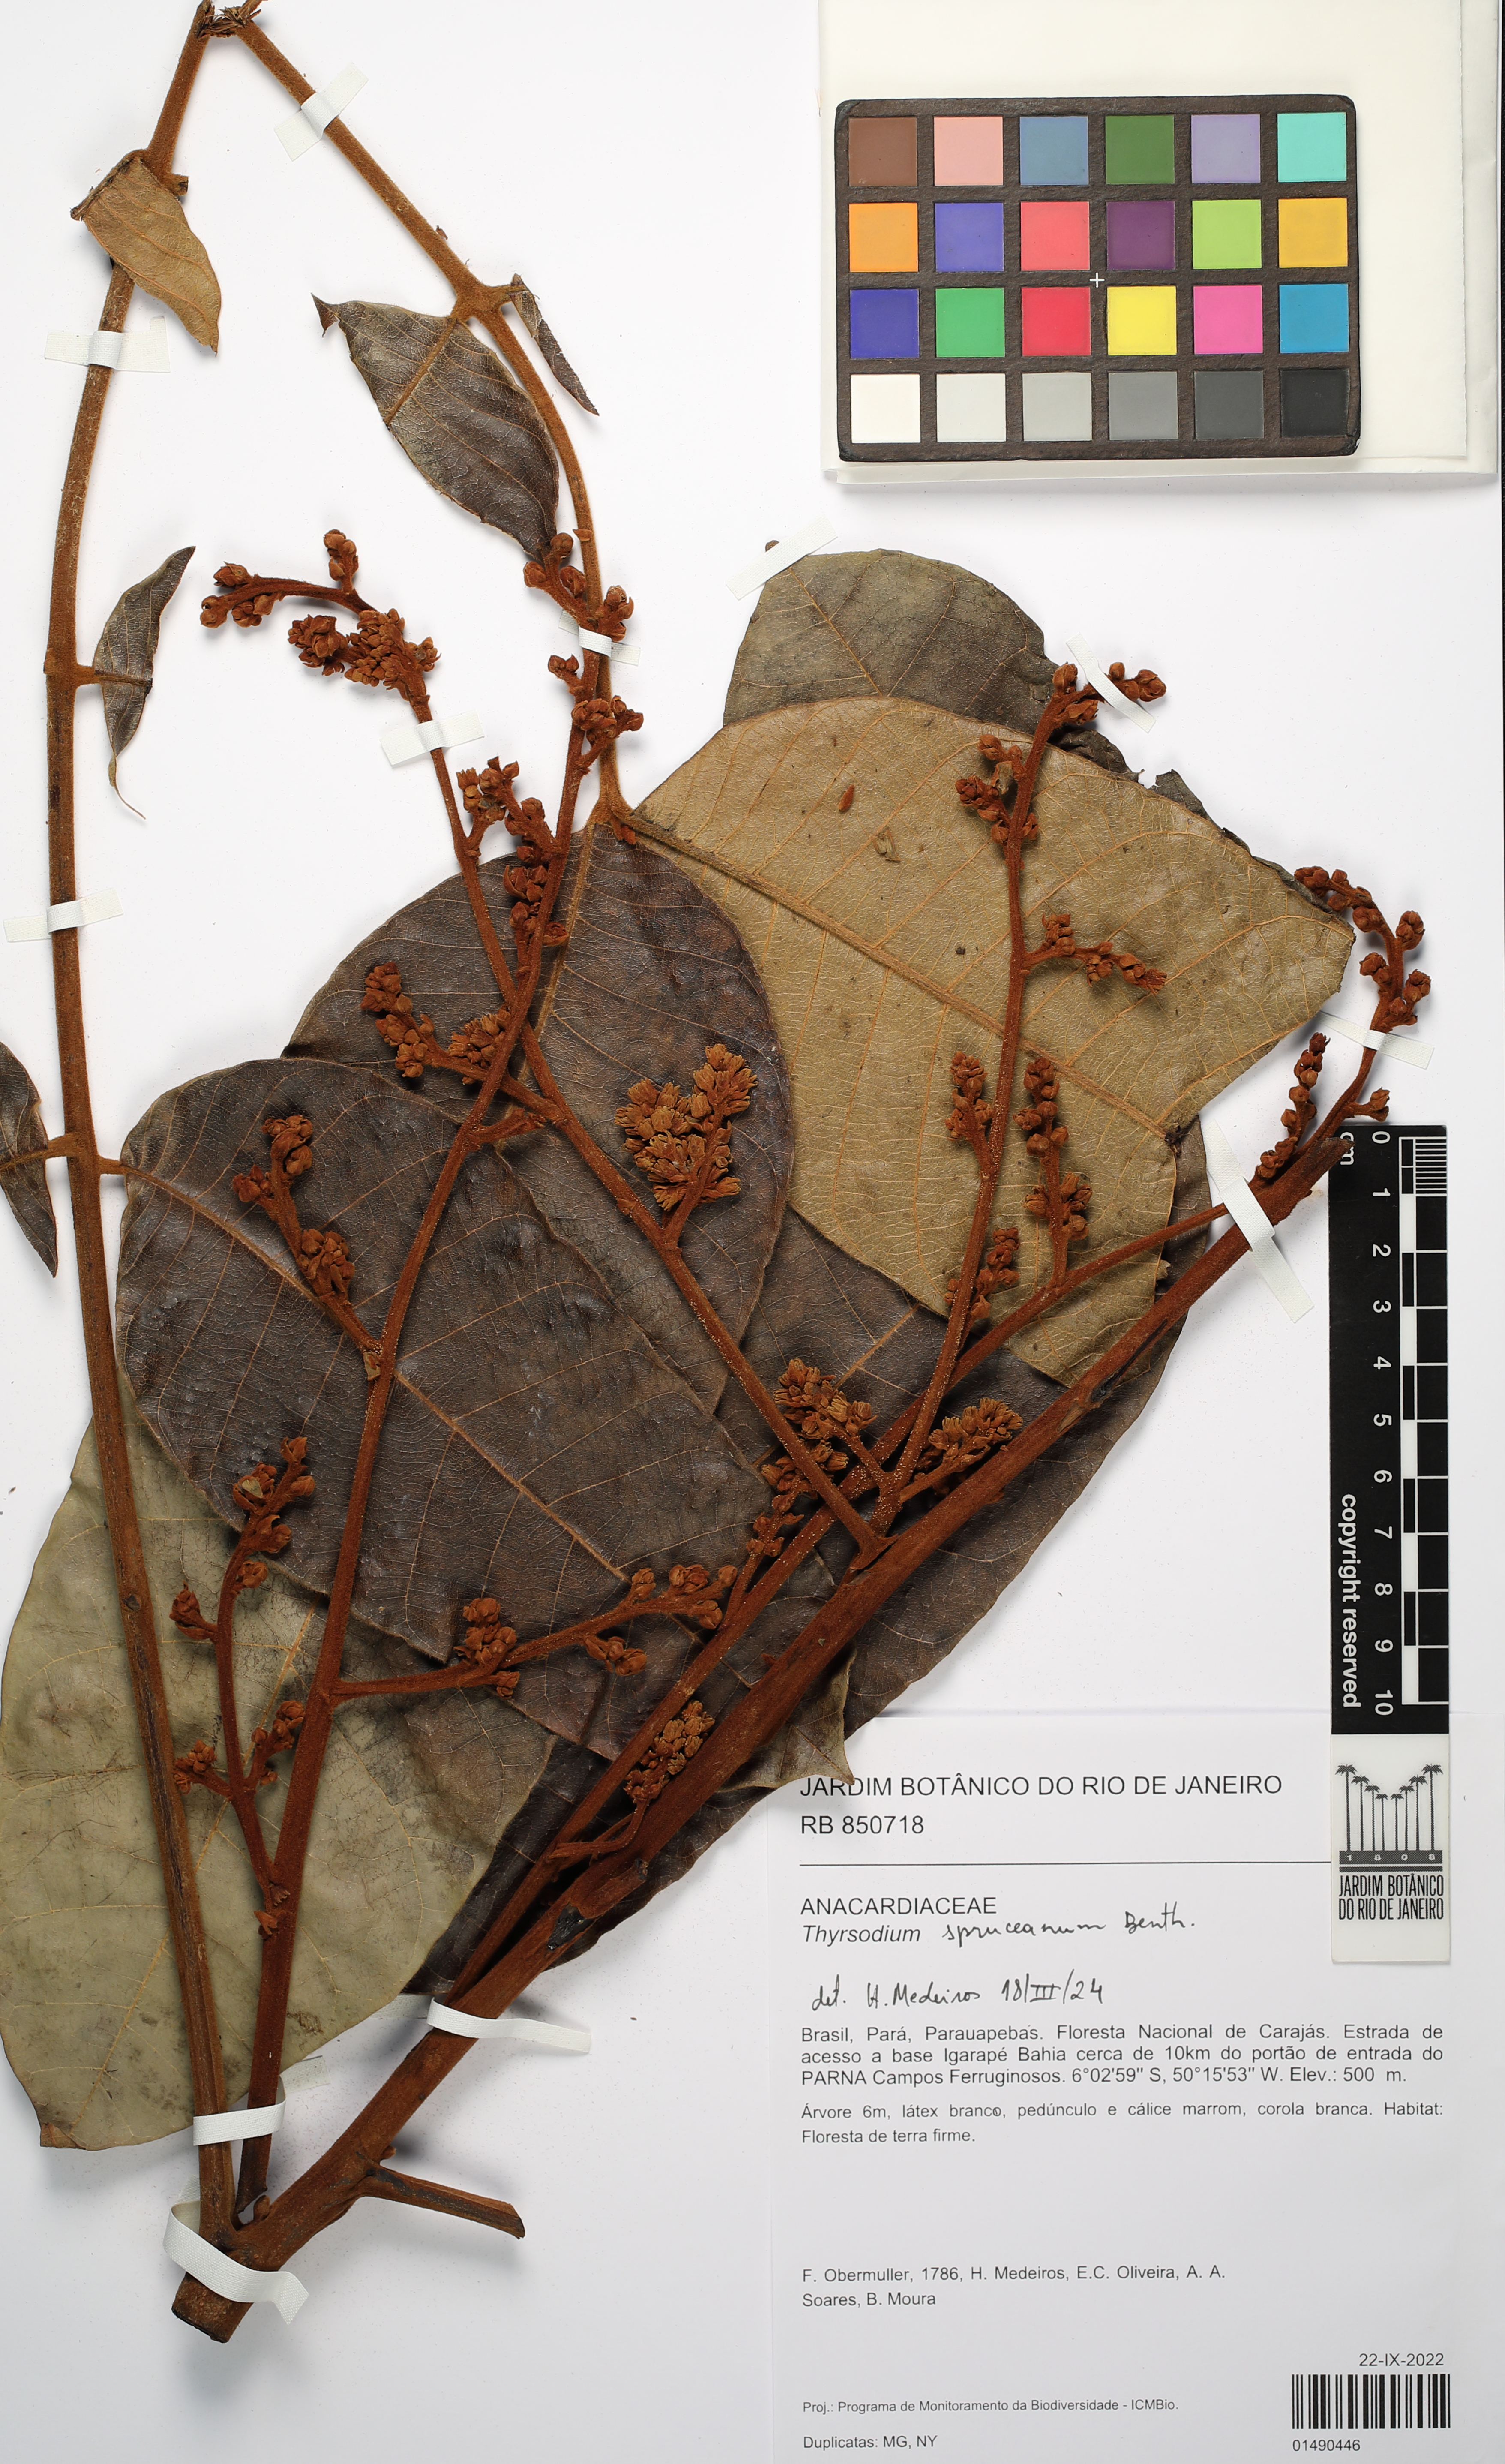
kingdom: Plantae
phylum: Tracheophyta
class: Magnoliopsida
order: Sapindales
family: Anacardiaceae
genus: Thyrsodium
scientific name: Thyrsodium spruceanum
